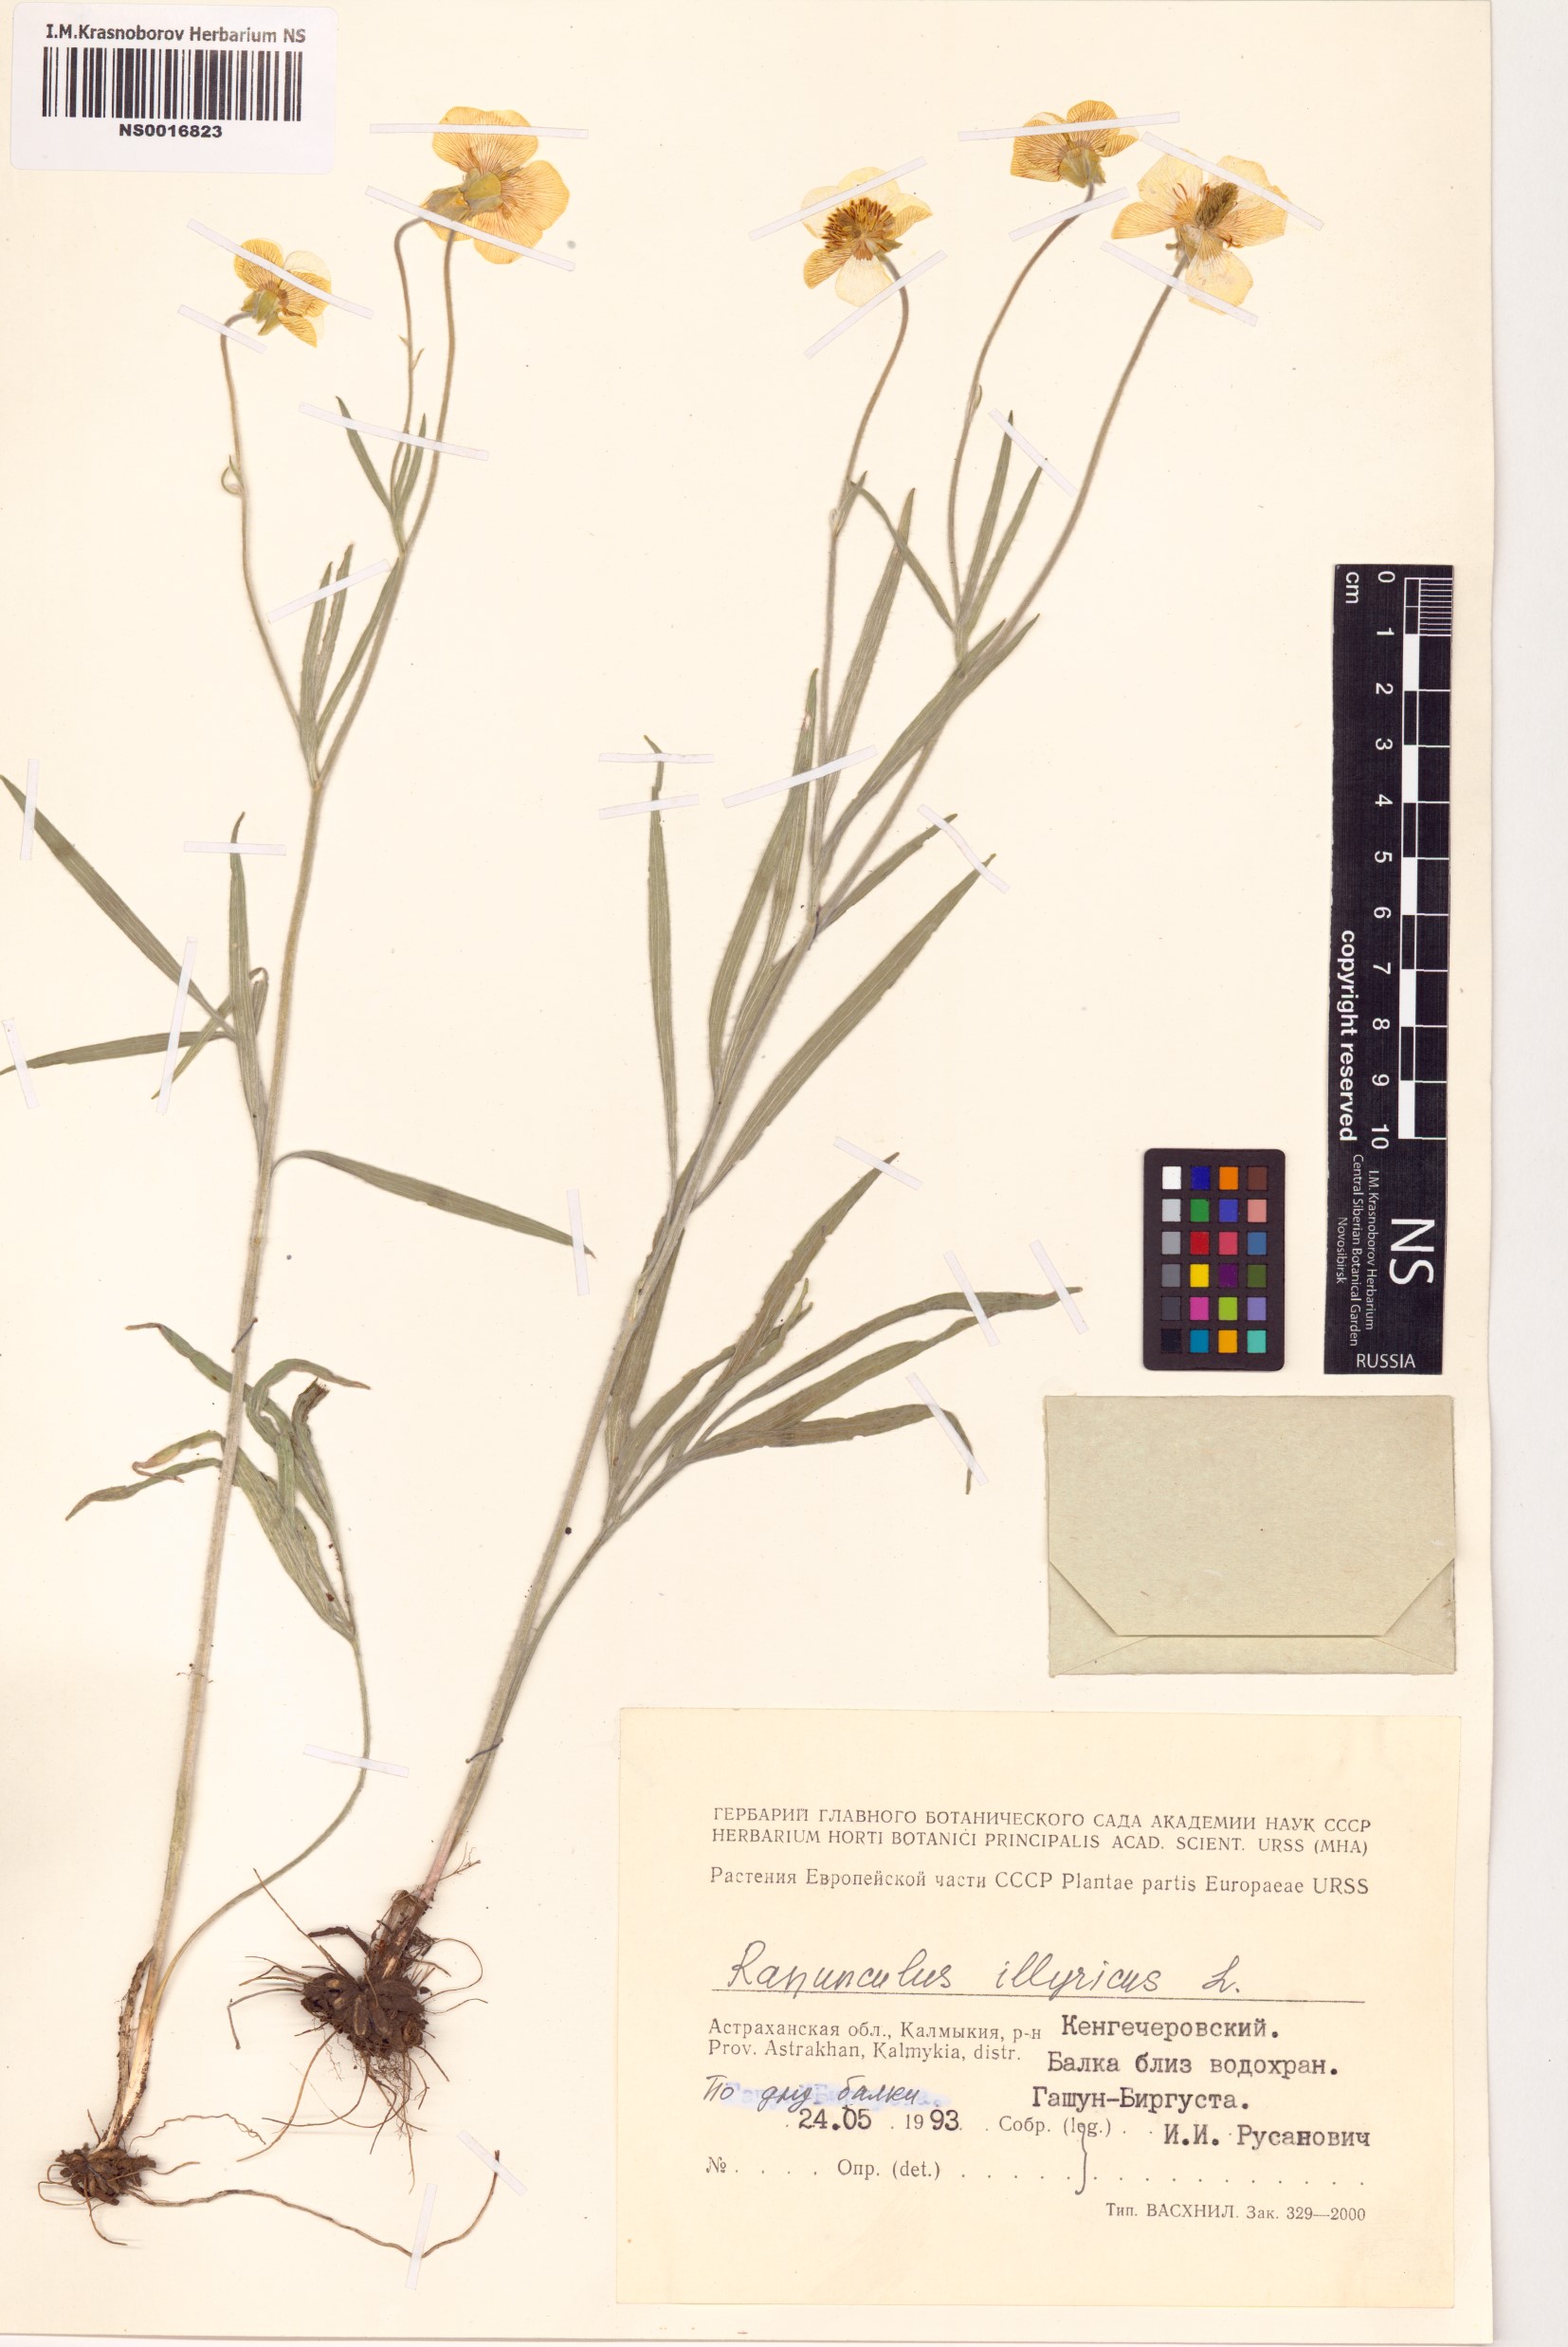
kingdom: Plantae
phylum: Tracheophyta
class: Magnoliopsida
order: Ranunculales
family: Ranunculaceae
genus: Ranunculus
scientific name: Ranunculus illyricus
